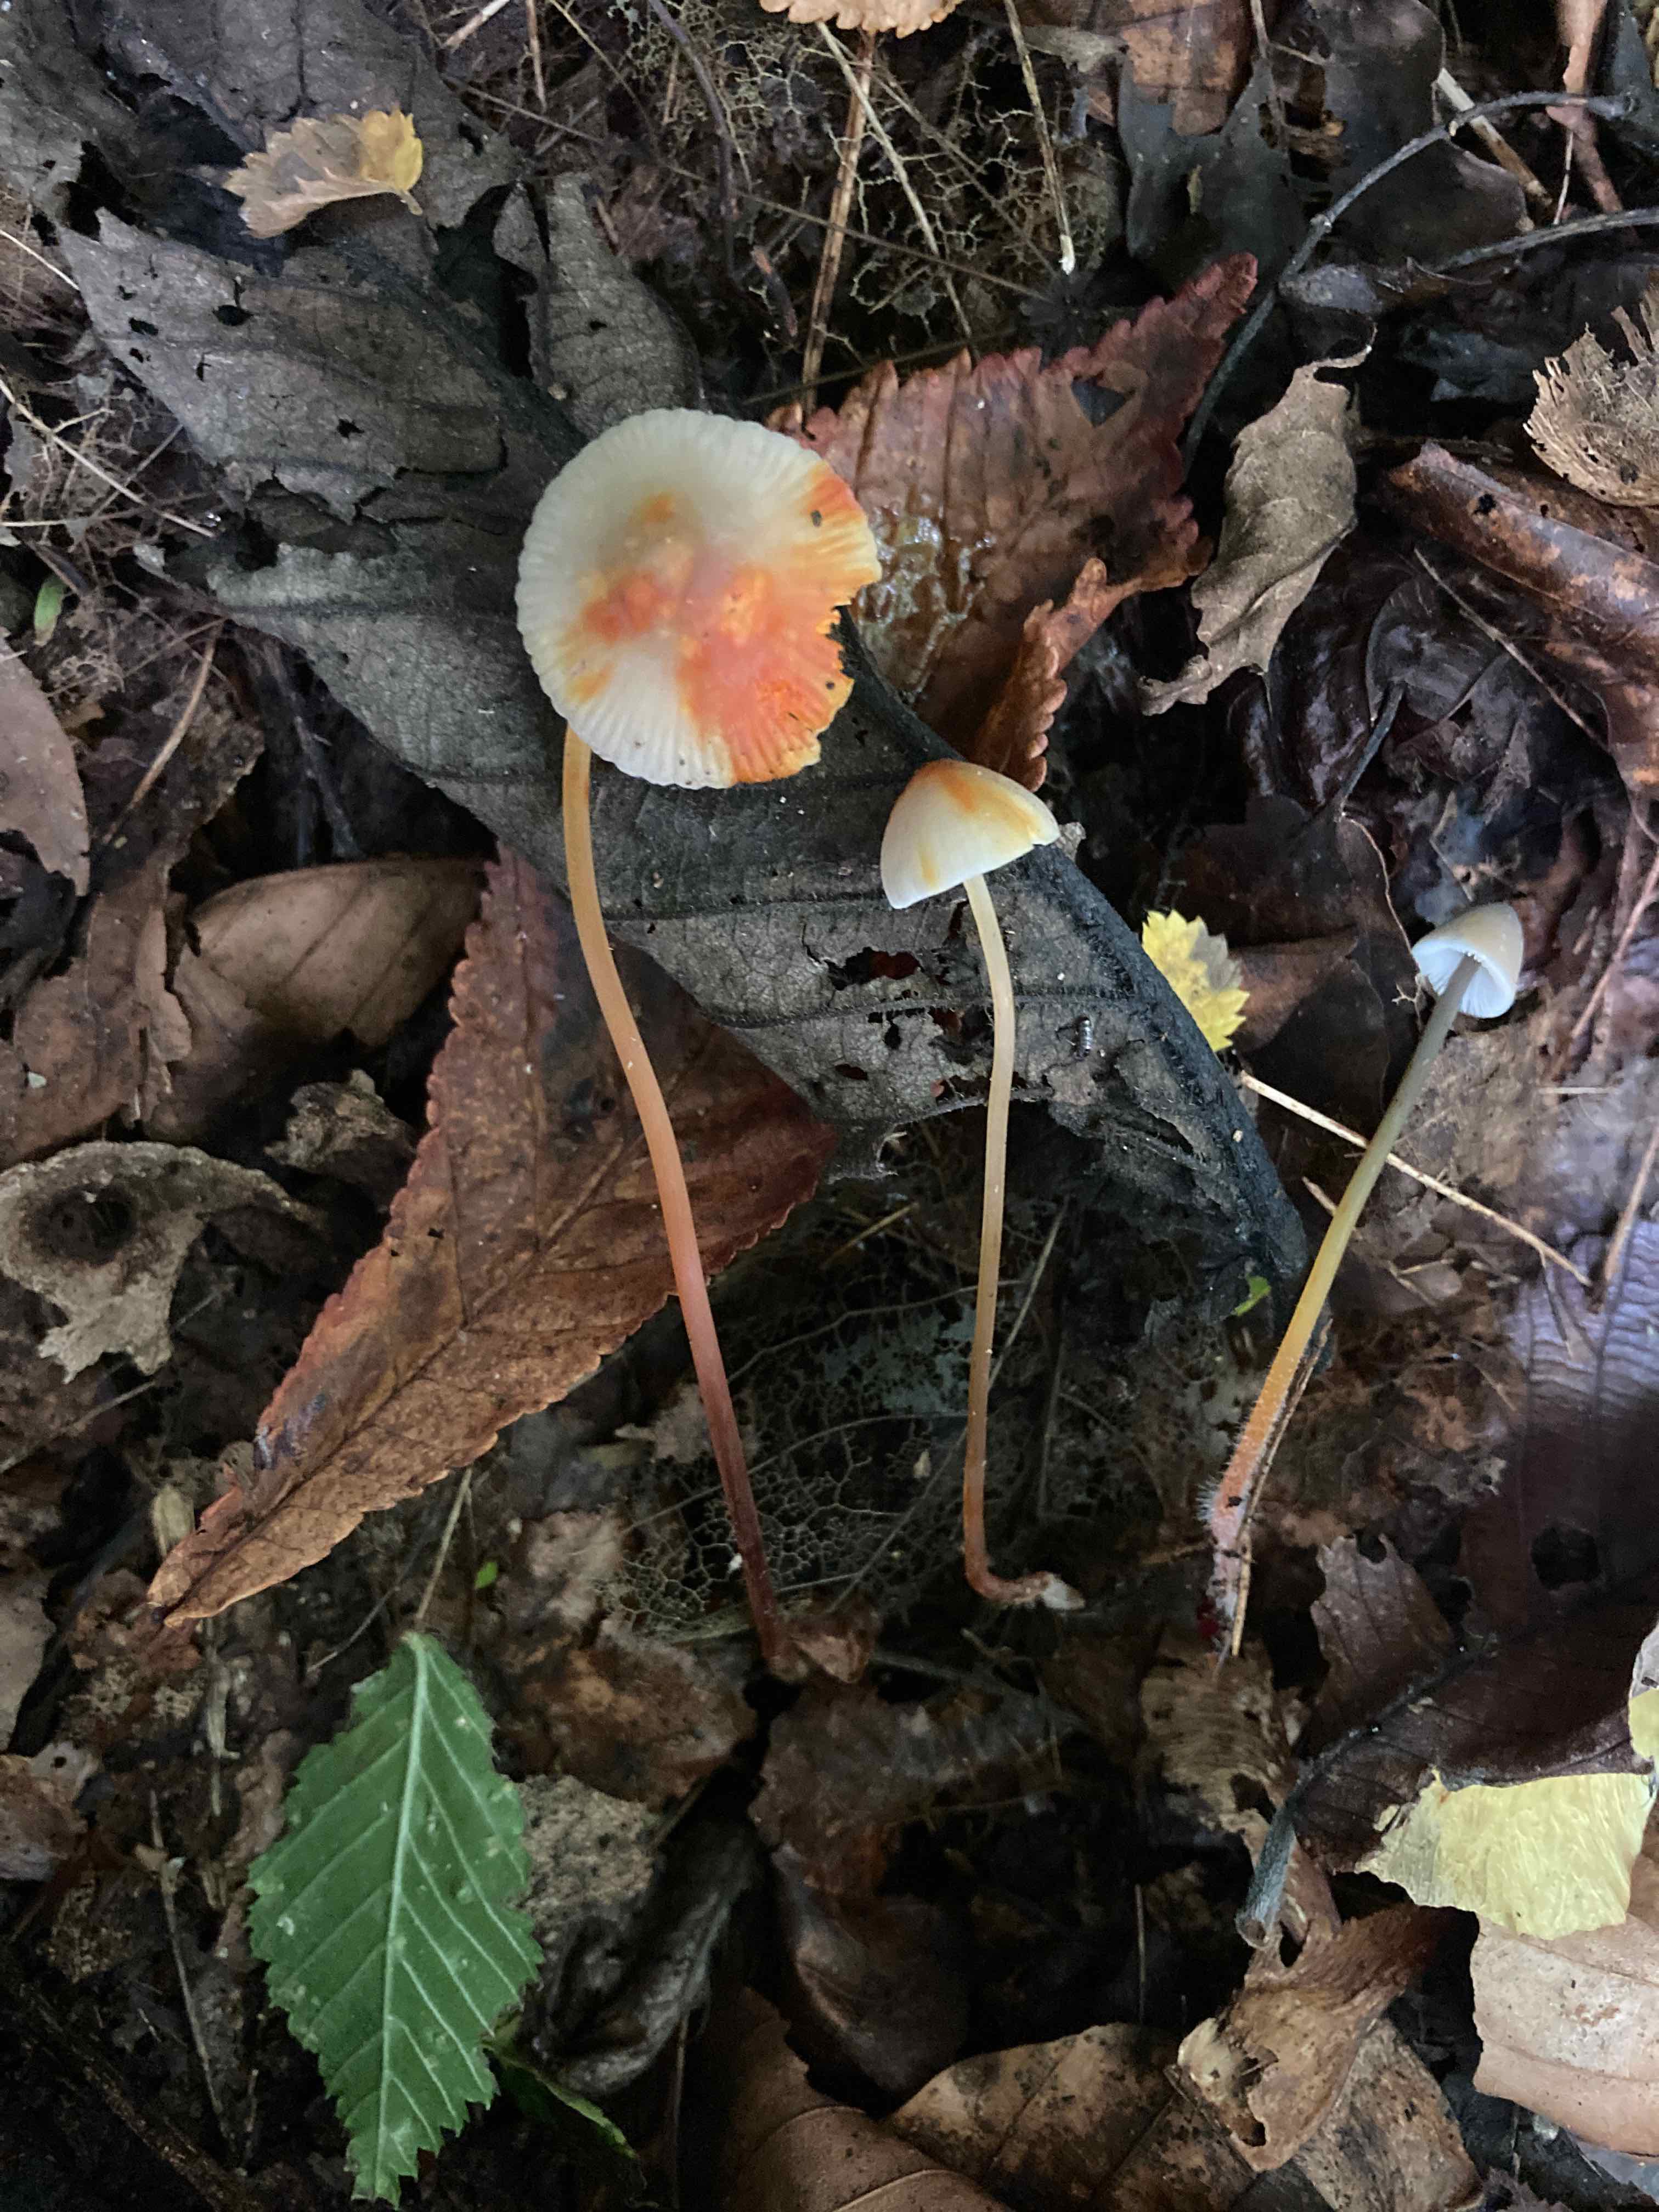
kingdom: Fungi
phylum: Basidiomycota
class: Agaricomycetes
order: Agaricales
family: Mycenaceae
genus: Mycena
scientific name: Mycena crocata
